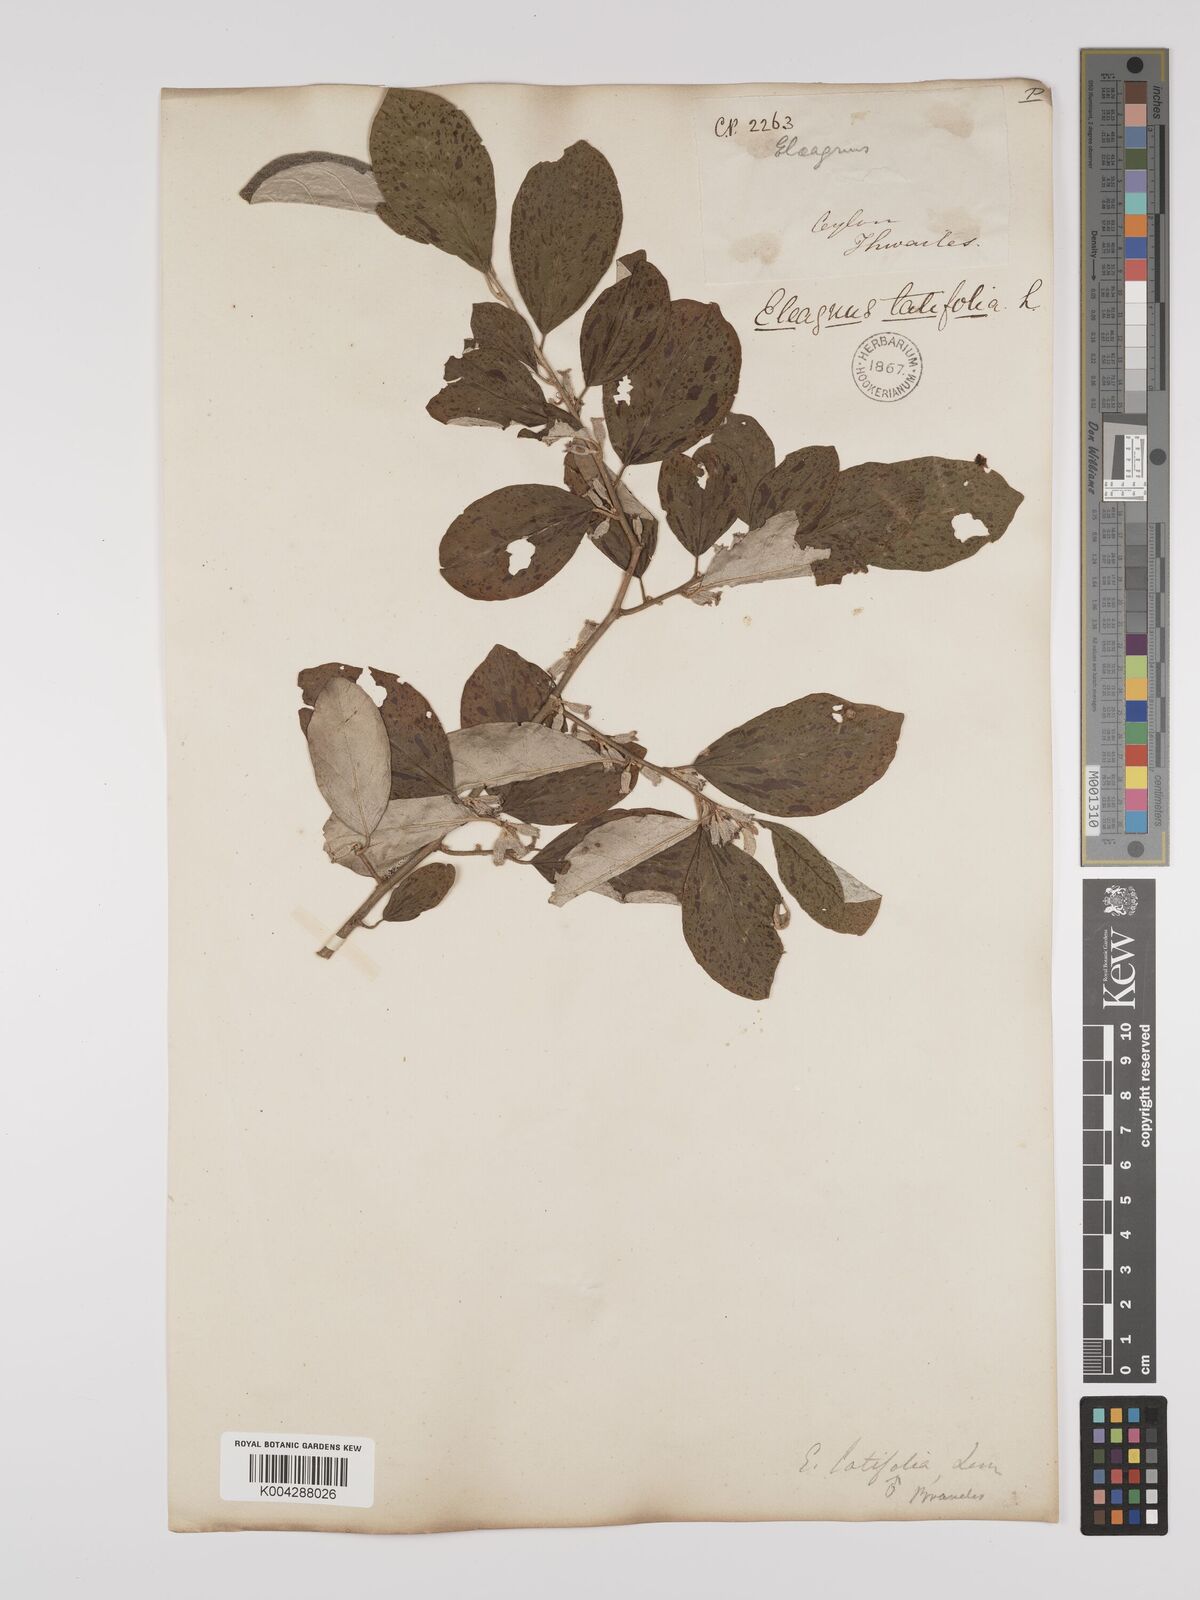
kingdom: Plantae
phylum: Tracheophyta
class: Magnoliopsida
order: Rosales
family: Elaeagnaceae
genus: Elaeagnus
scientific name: Elaeagnus latifolia
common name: Oleaster
